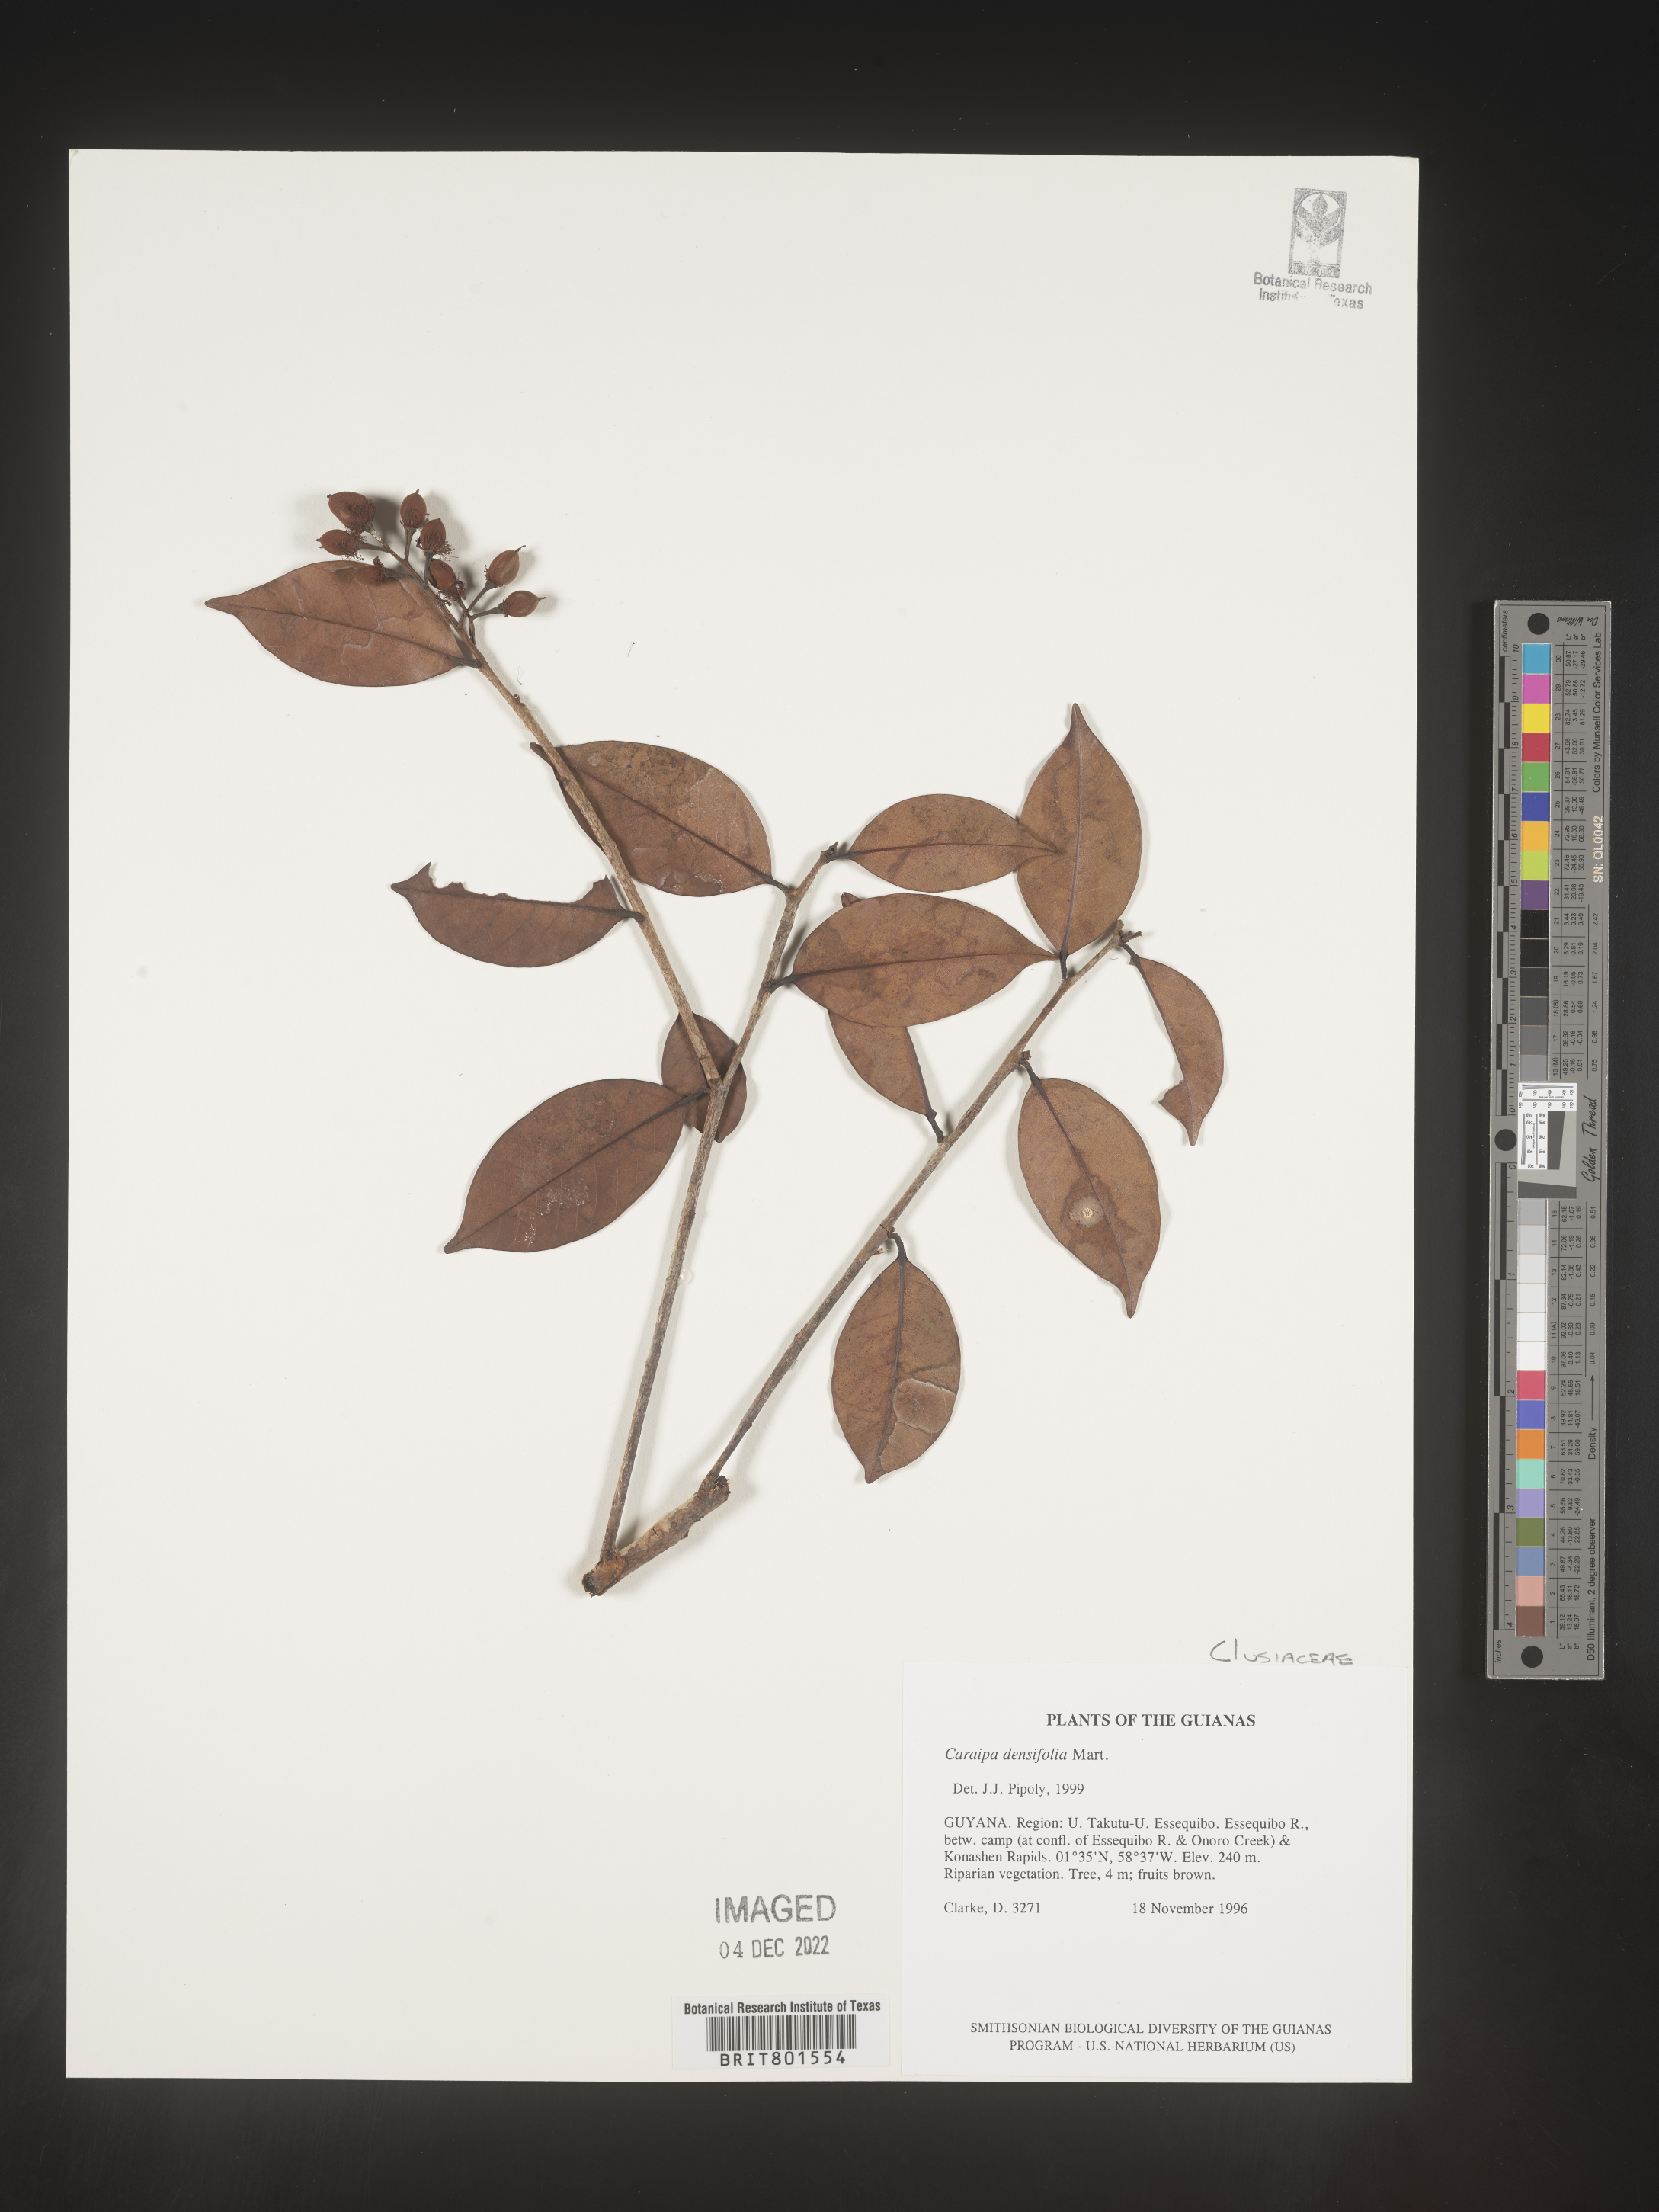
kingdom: Plantae
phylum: Tracheophyta
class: Magnoliopsida
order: Malpighiales
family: Calophyllaceae
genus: Caraipa
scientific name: Caraipa
